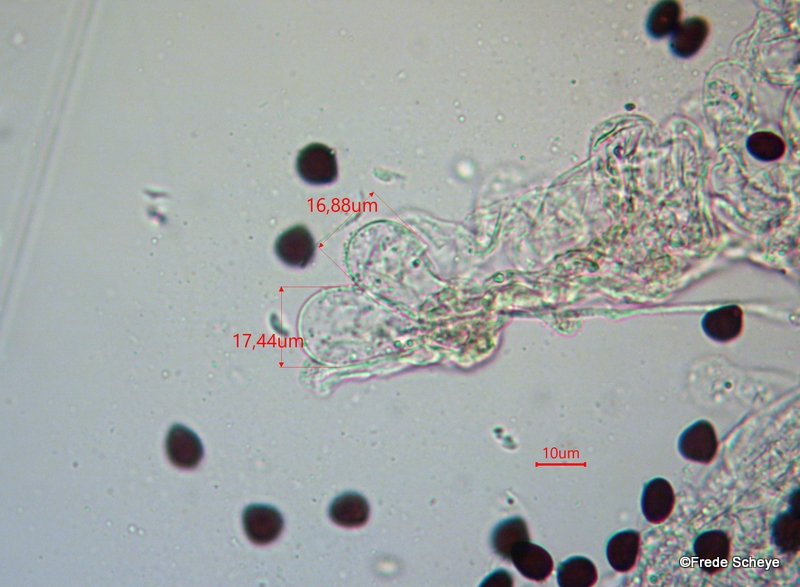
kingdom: Fungi
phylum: Basidiomycota
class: Agaricomycetes
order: Agaricales
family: Psathyrellaceae
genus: Parasola
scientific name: Parasola lactea
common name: glat hjulhat
